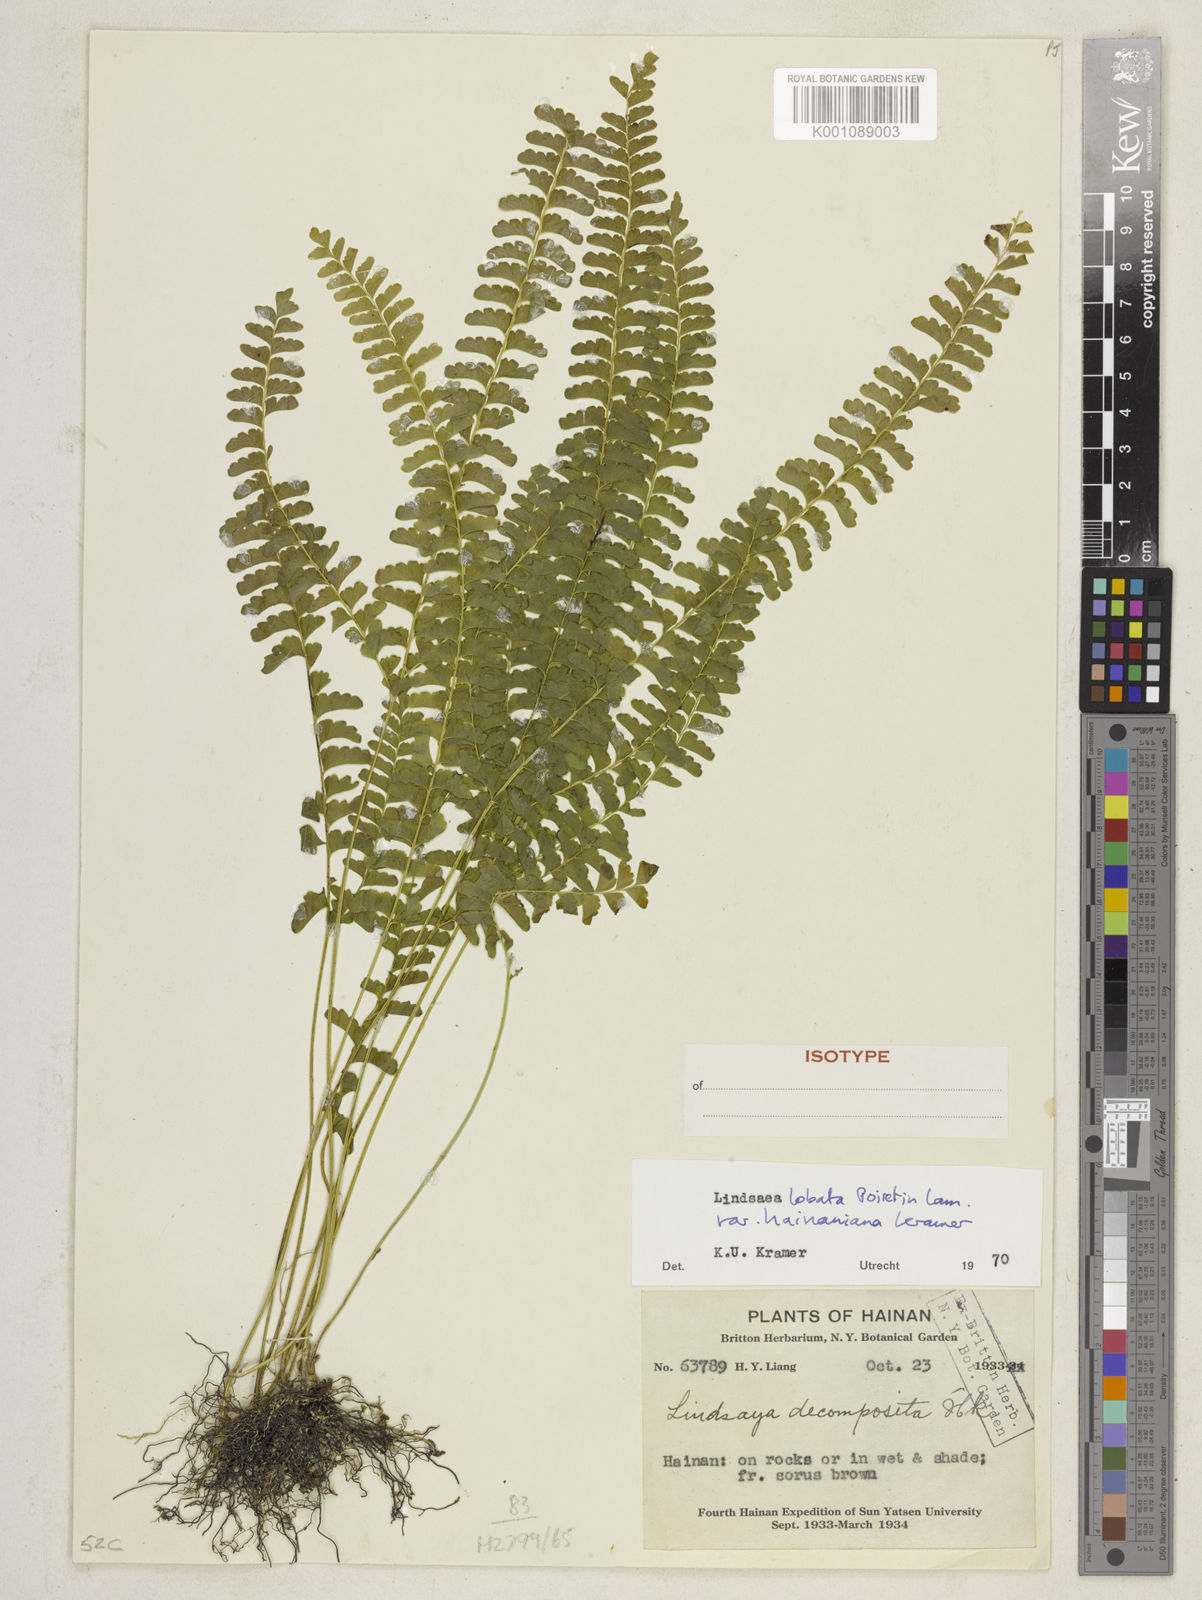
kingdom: Plantae
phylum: Tracheophyta
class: Polypodiopsida
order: Polypodiales
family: Lindsaeaceae
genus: Lindsaea
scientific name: Lindsaea hainaniana
